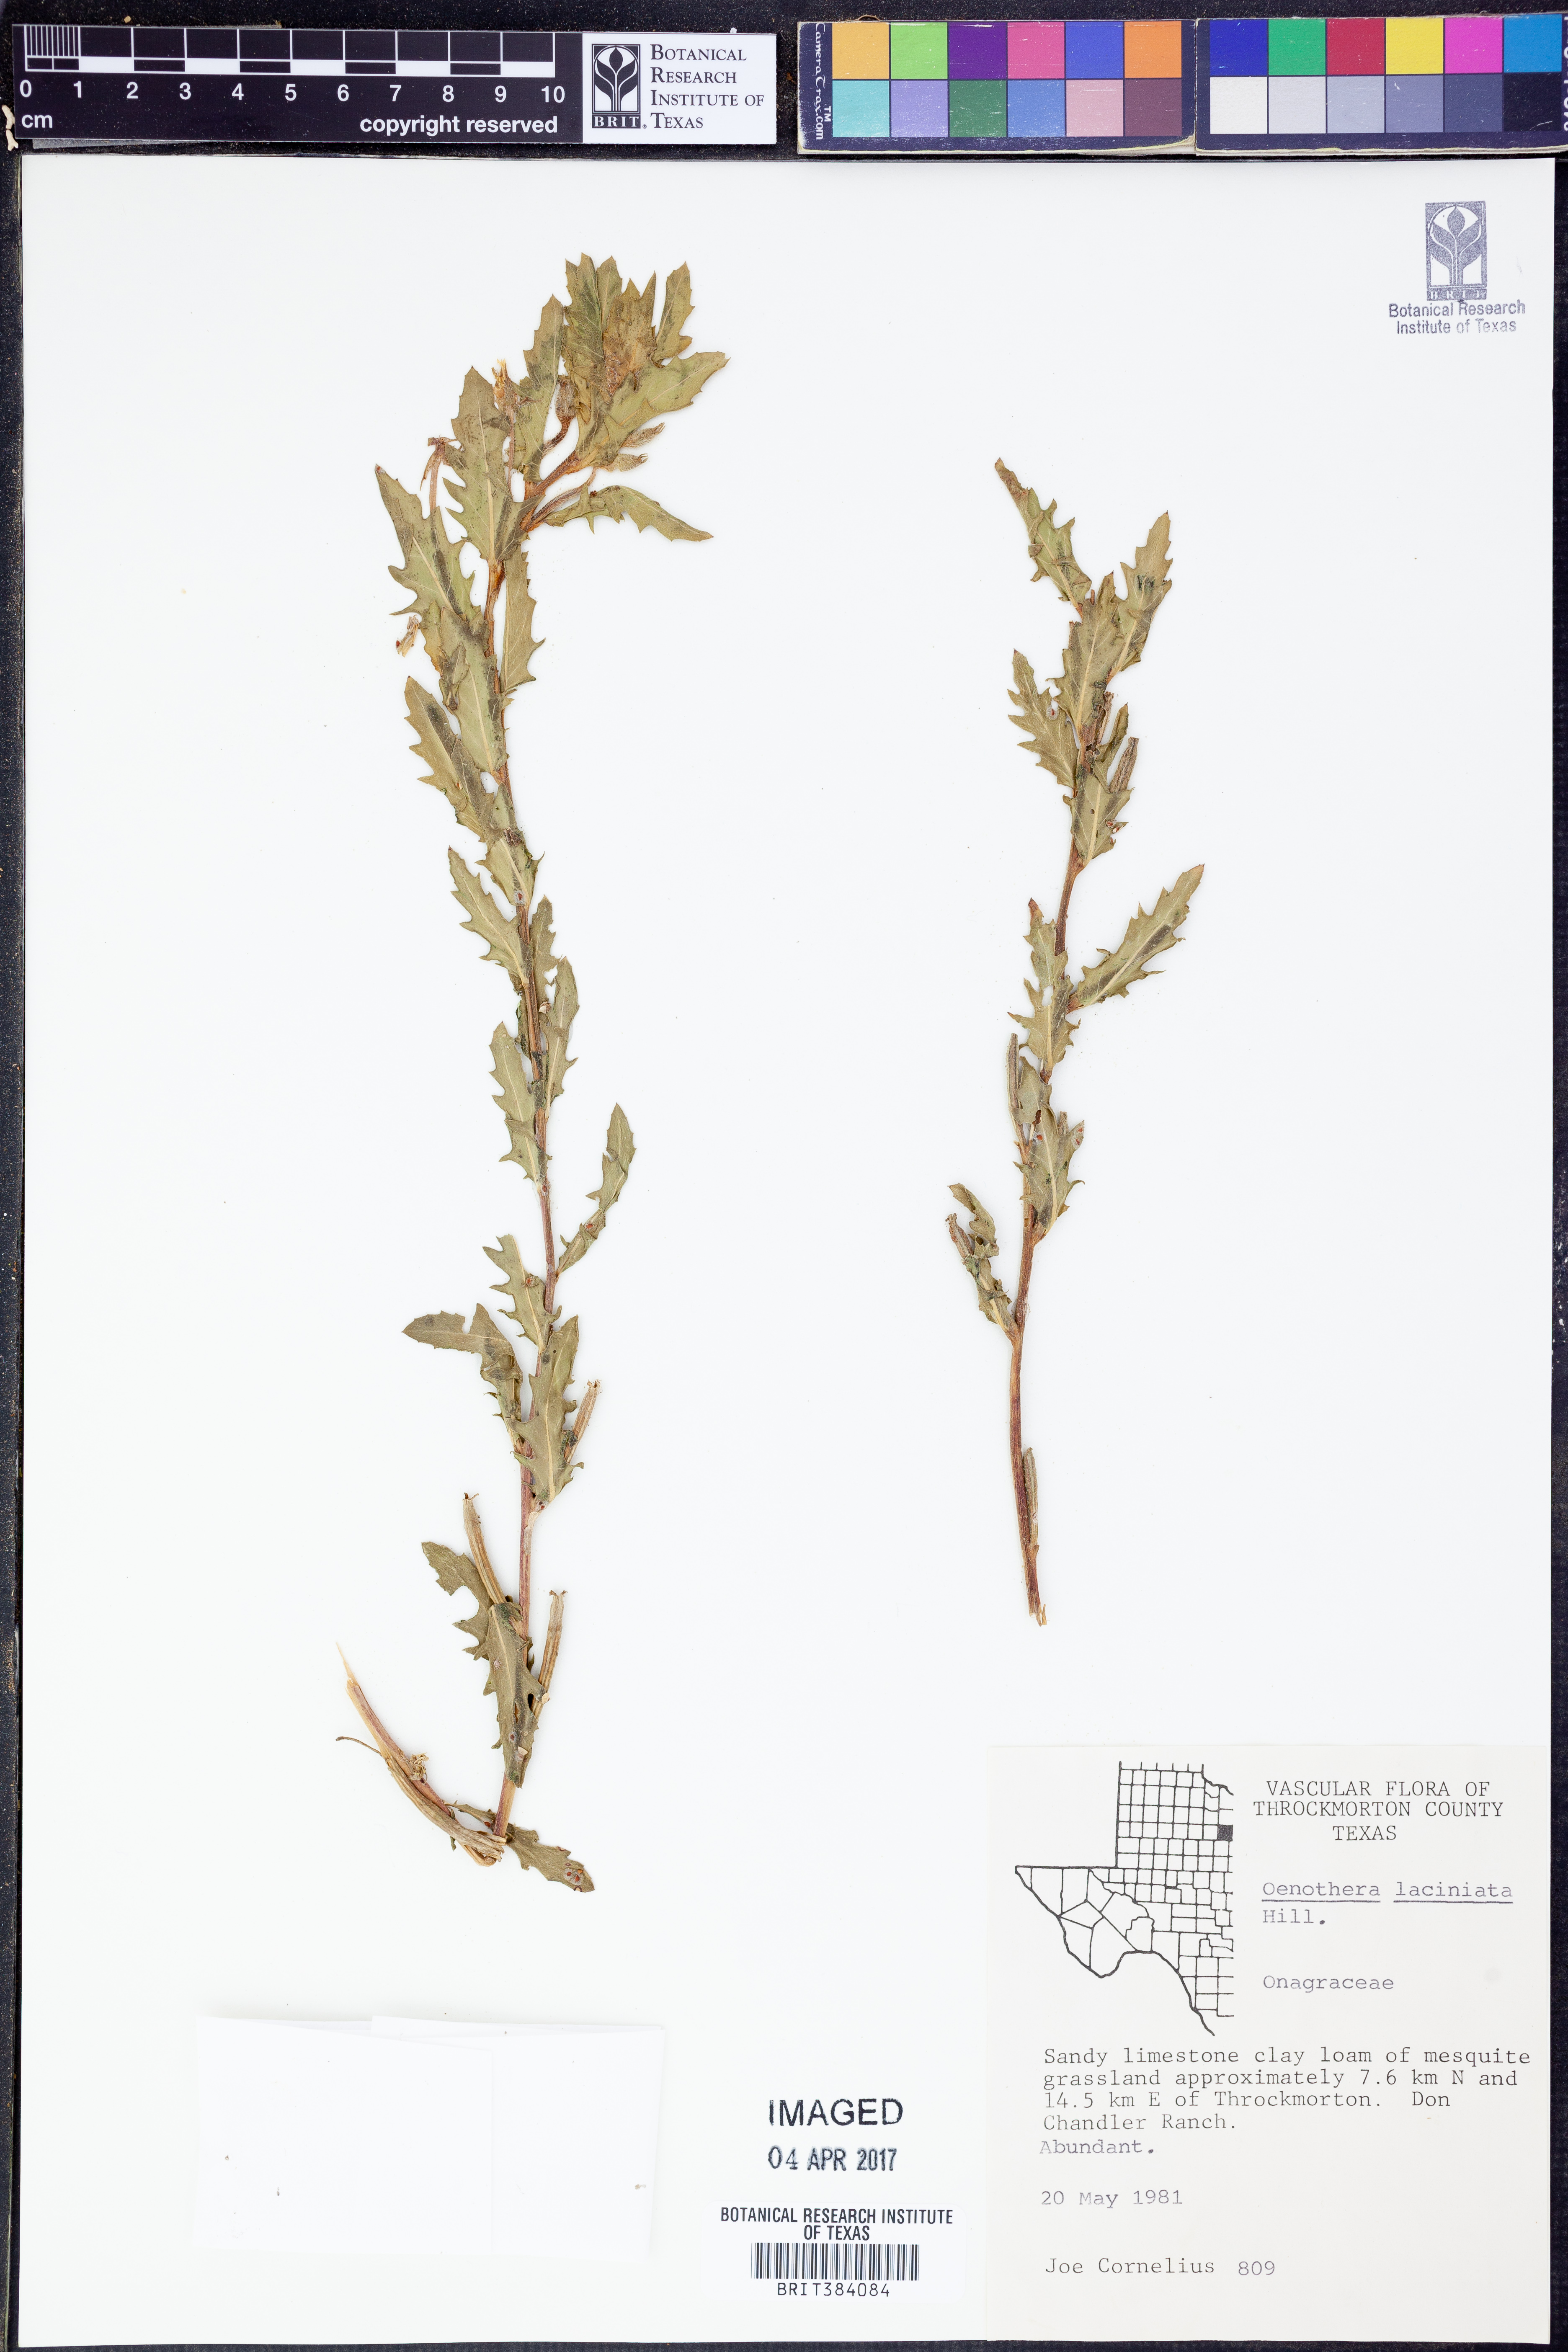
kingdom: Plantae
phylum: Tracheophyta
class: Magnoliopsida
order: Myrtales
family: Onagraceae
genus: Oenothera
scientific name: Oenothera laciniata
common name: Cut-leaved evening-primrose
